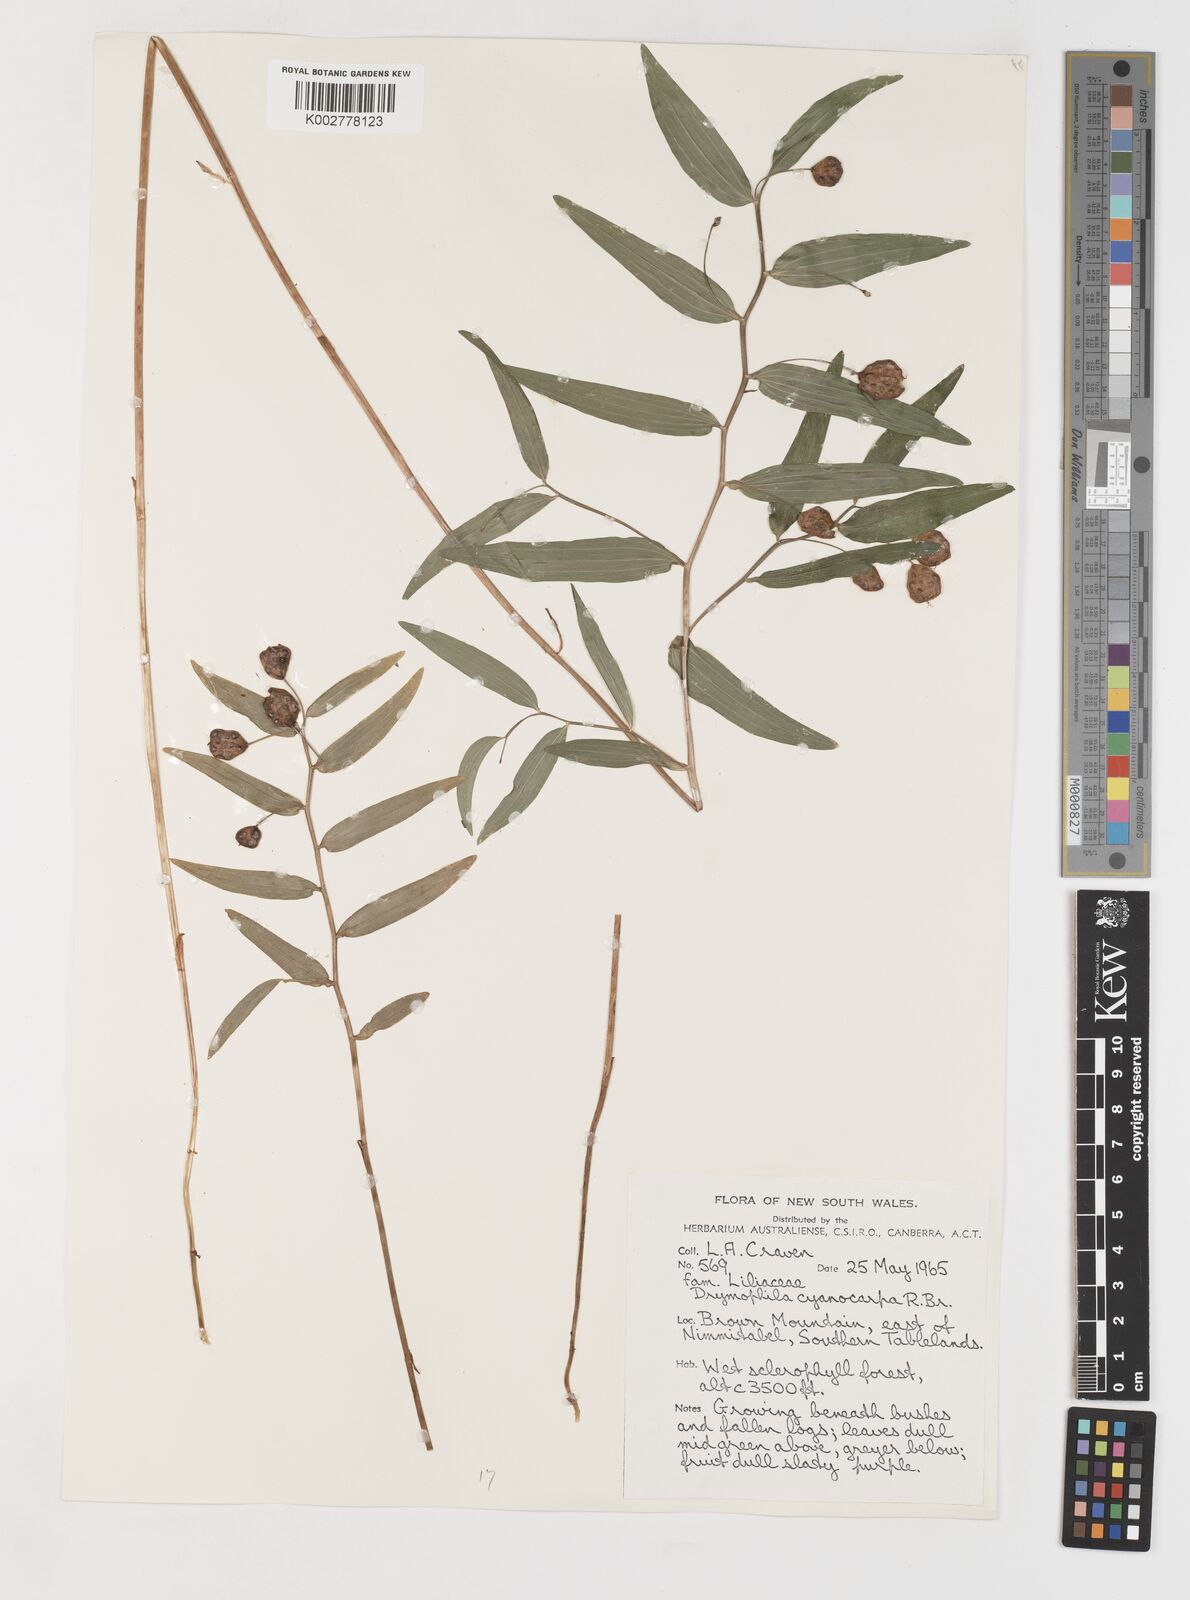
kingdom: Plantae
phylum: Tracheophyta
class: Liliopsida
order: Liliales
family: Alstroemeriaceae
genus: Drymophila
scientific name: Drymophila cyanocarpa
